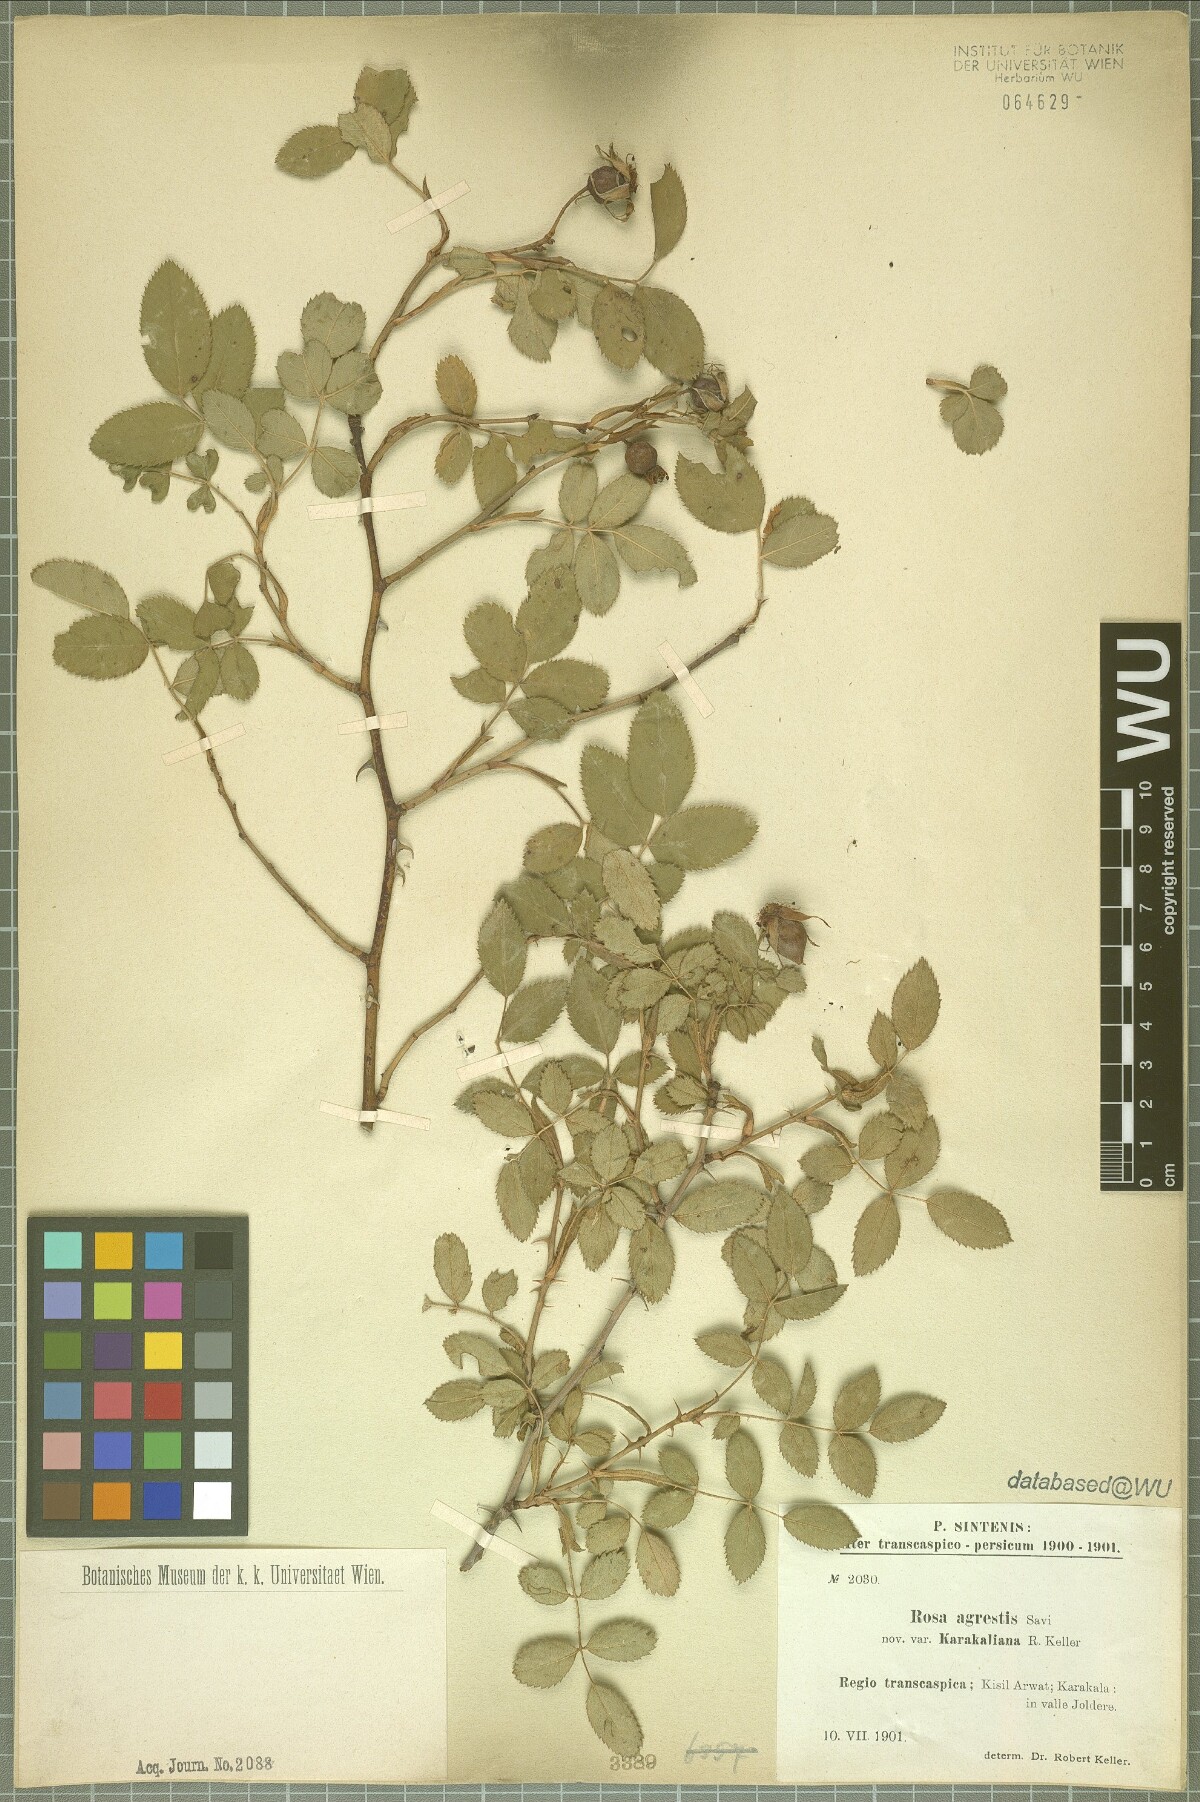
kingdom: Plantae
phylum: Tracheophyta
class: Magnoliopsida
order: Rosales
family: Rosaceae
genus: Rosa
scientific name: Rosa agrestis
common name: Fieldbriar
